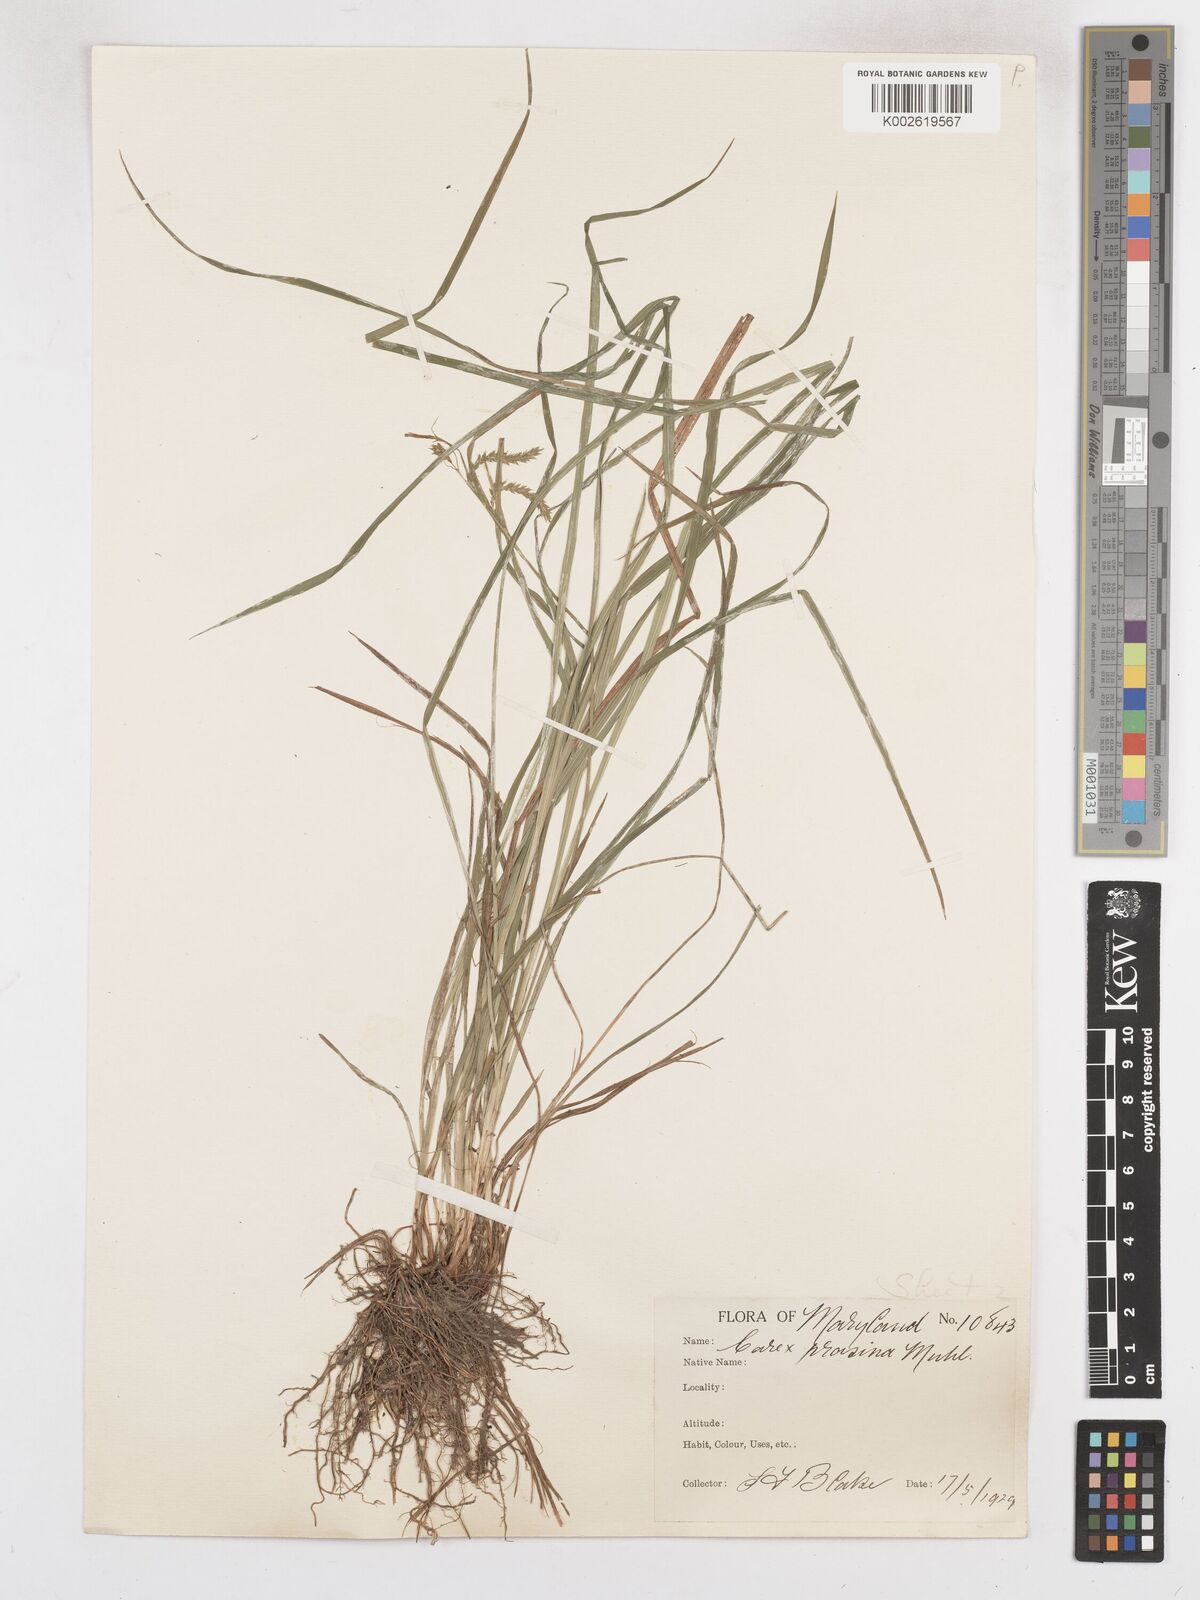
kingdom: Plantae
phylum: Tracheophyta
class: Liliopsida
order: Poales
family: Cyperaceae
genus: Carex
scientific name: Carex prasina
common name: Drooping sedge
